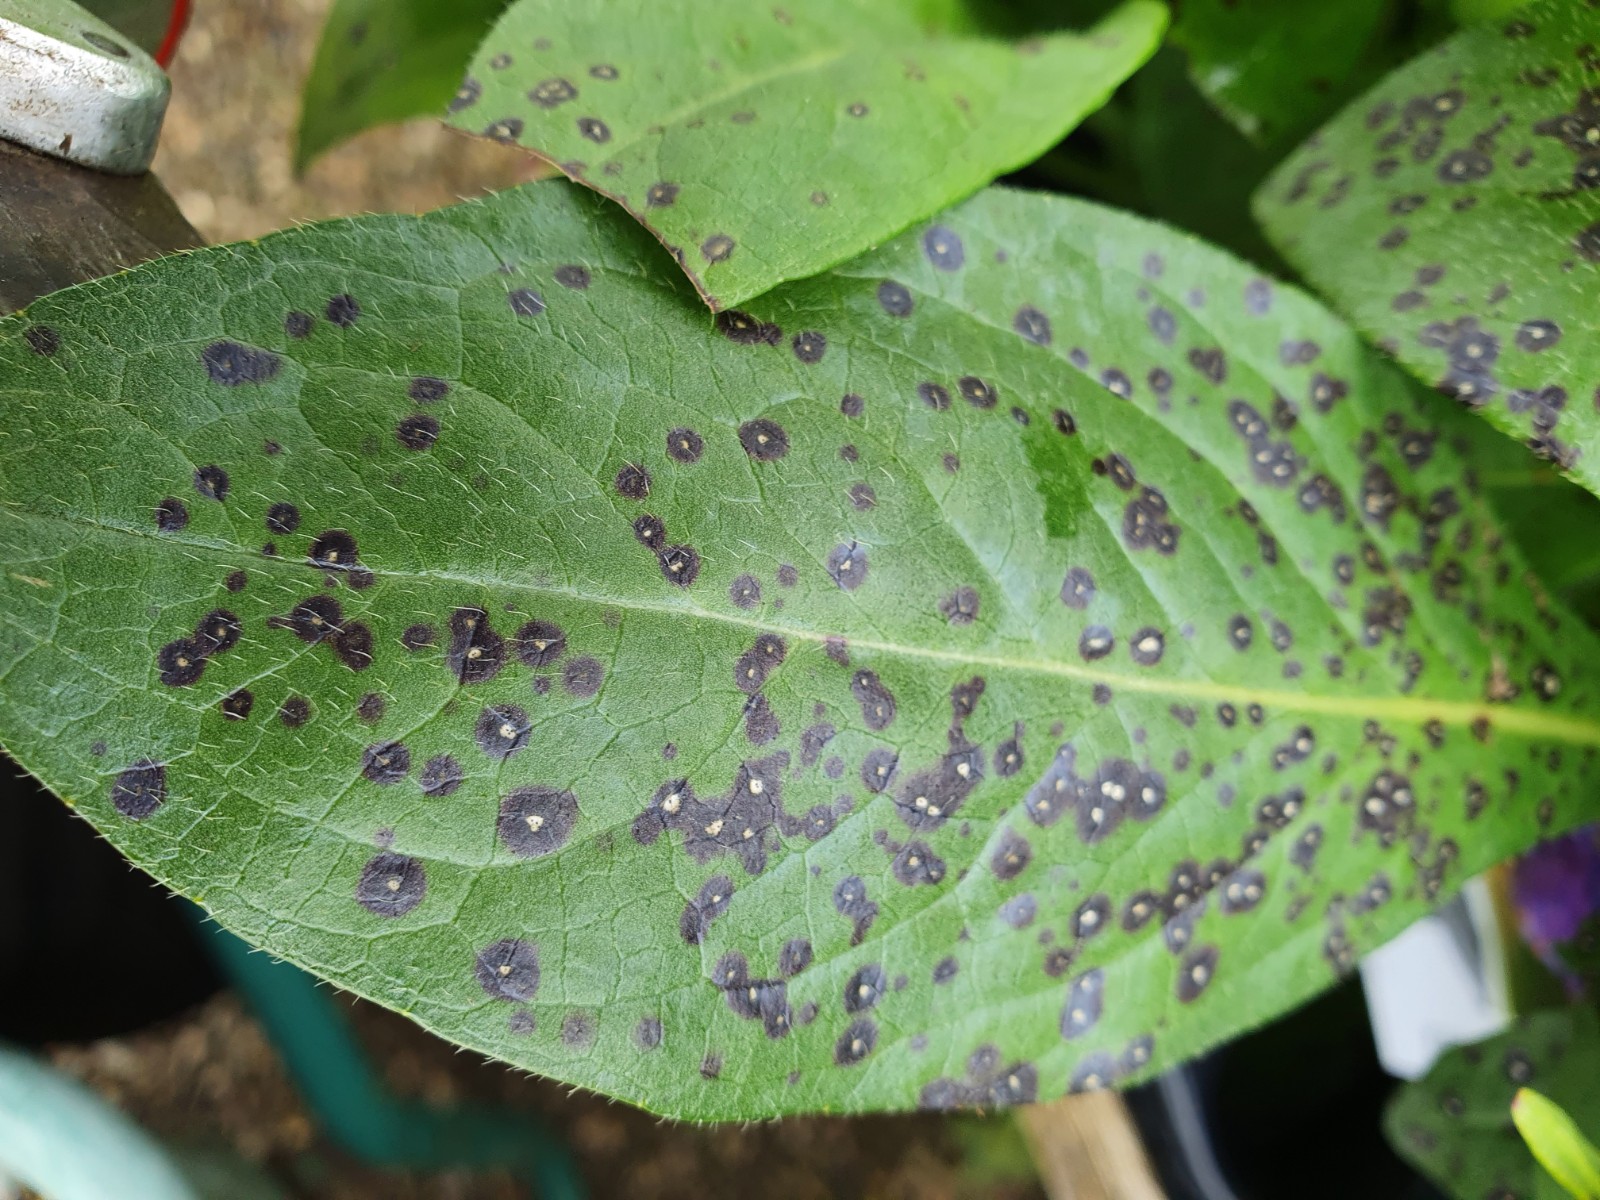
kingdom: Fungi
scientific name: Fungi
